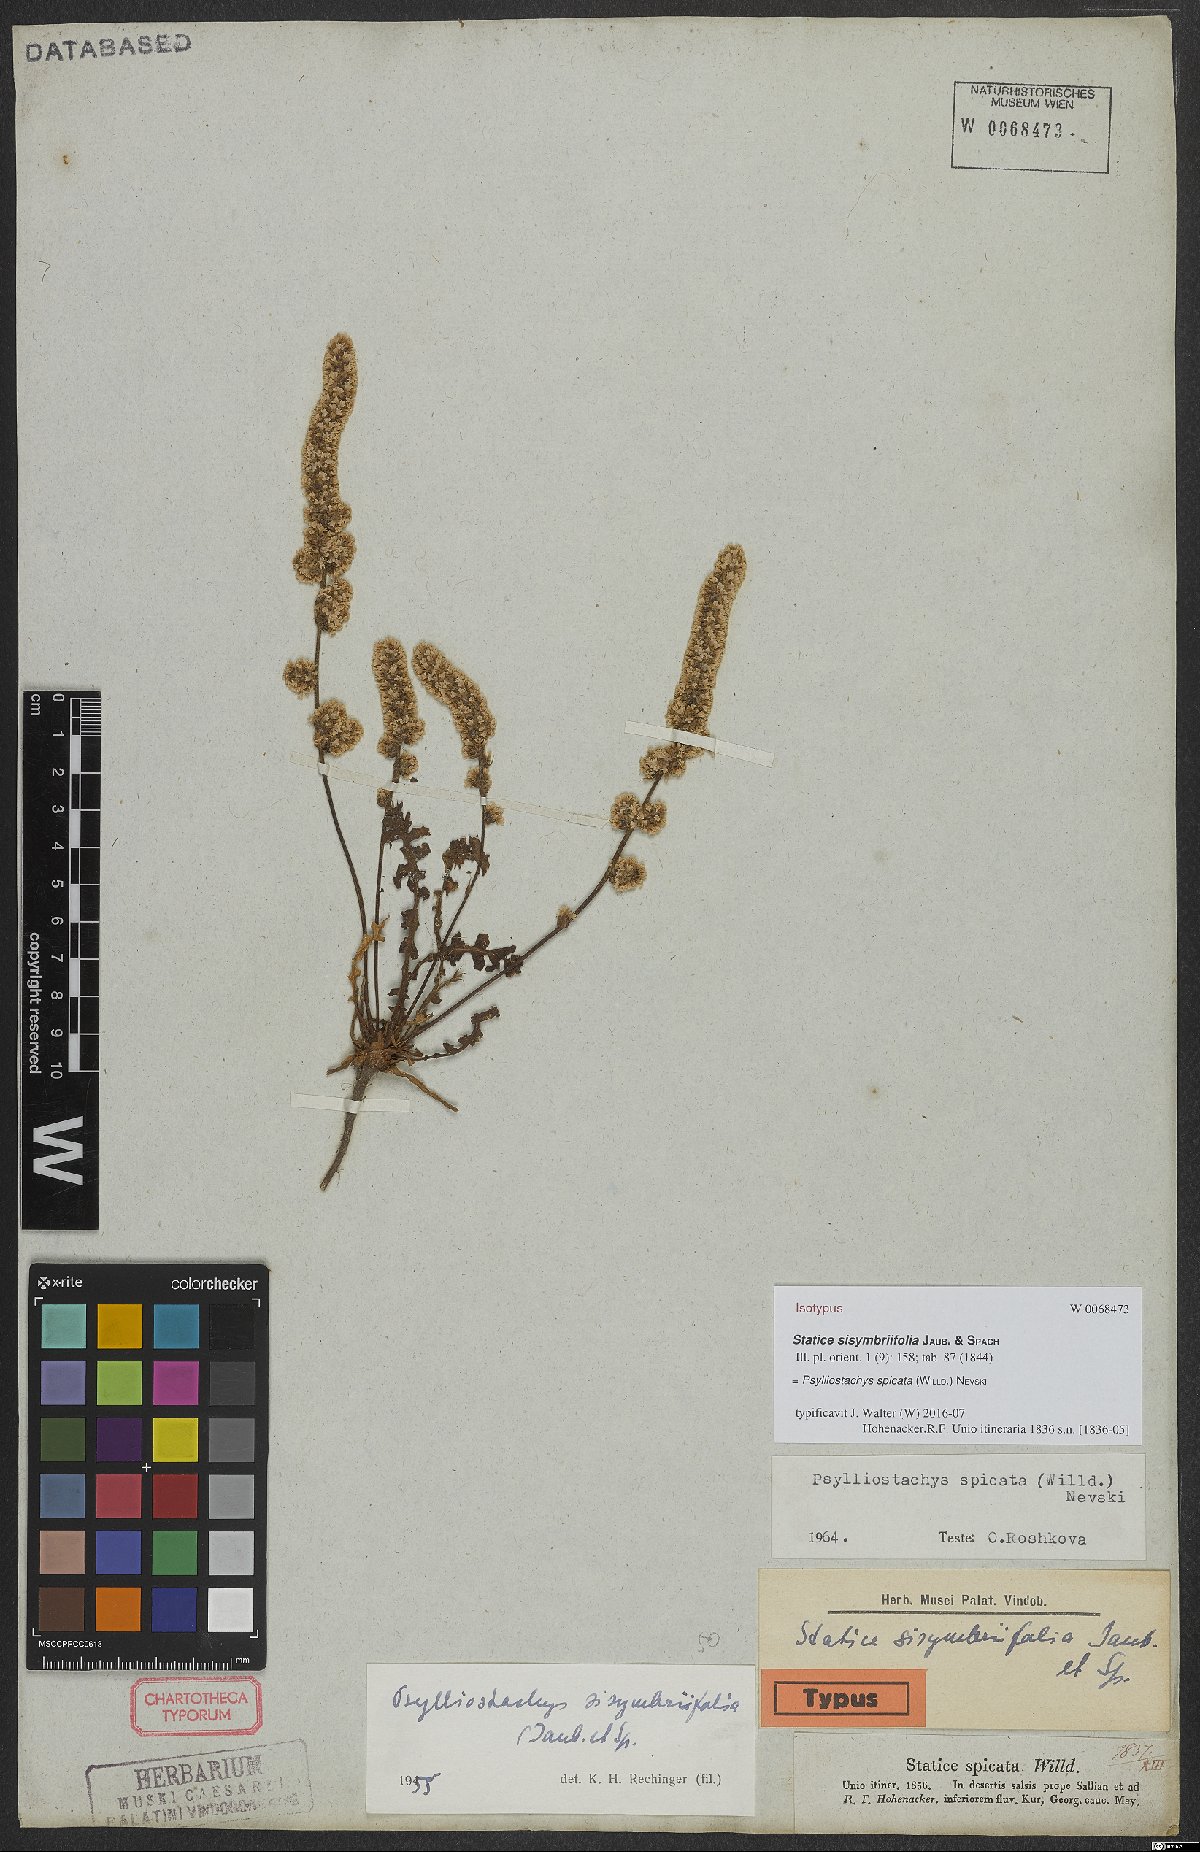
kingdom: Plantae
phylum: Tracheophyta
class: Magnoliopsida
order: Caryophyllales
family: Plumbaginaceae
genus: Psylliostachys
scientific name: Psylliostachys spicatus
